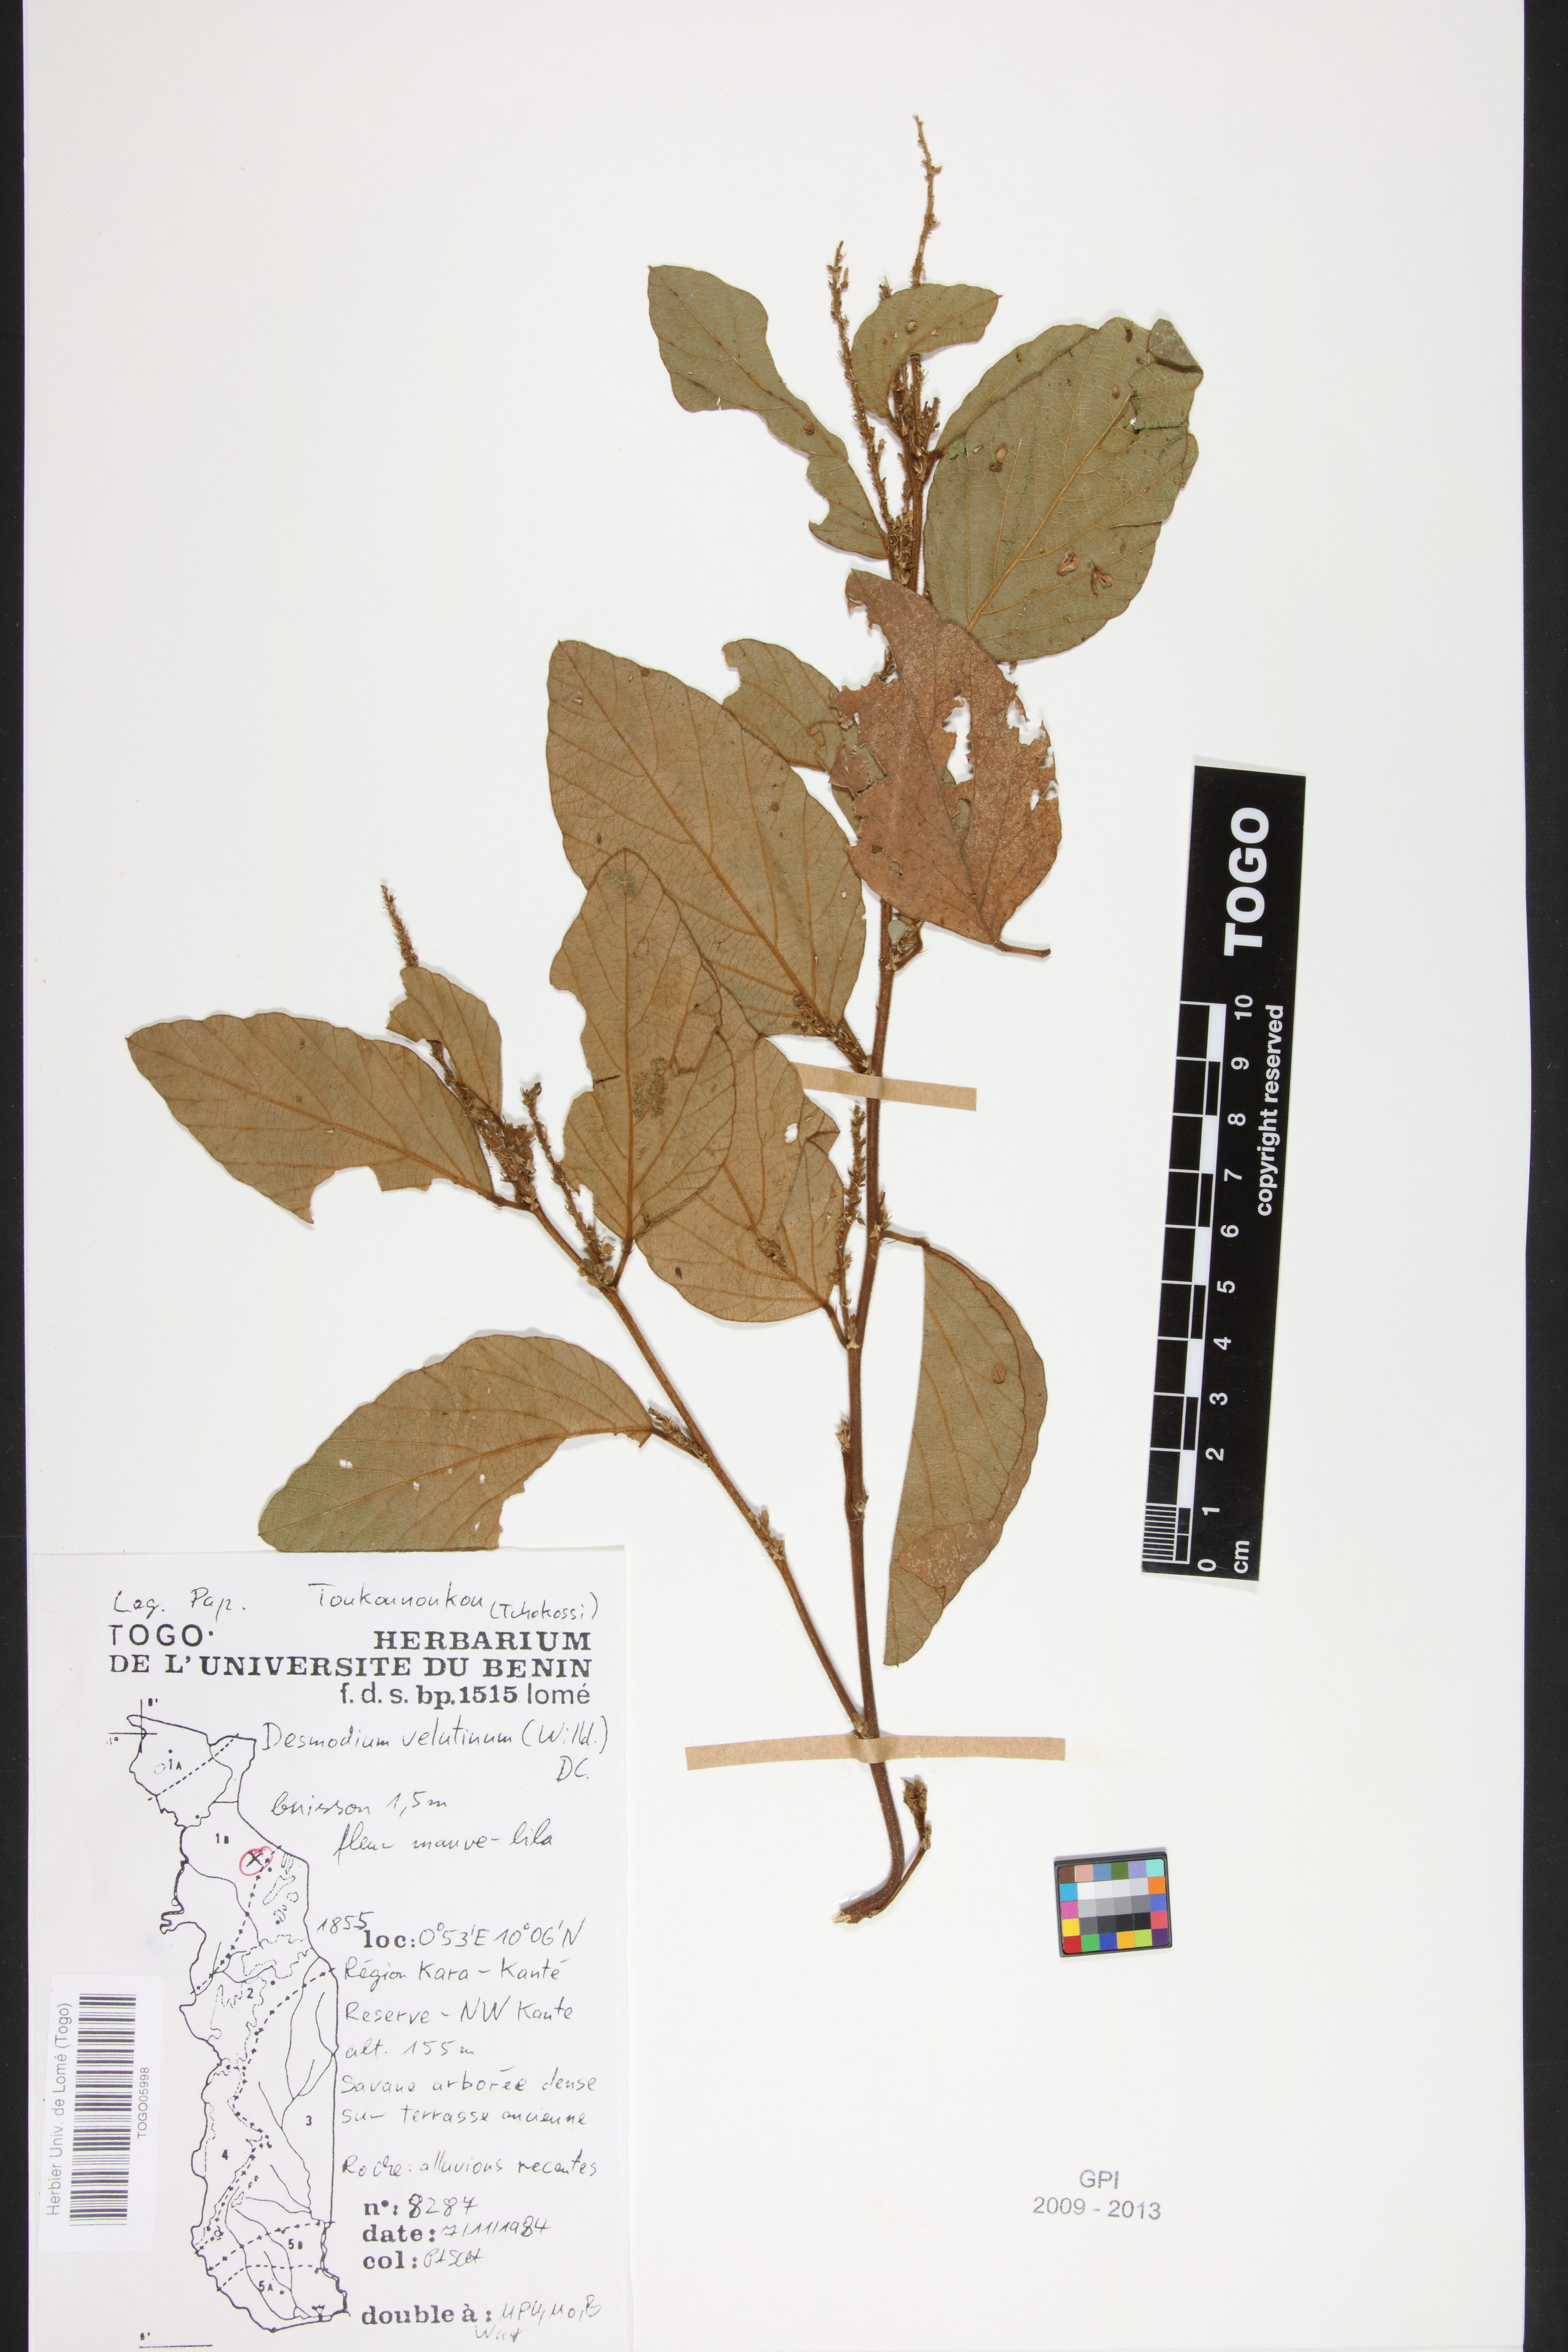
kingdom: Plantae
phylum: Tracheophyta
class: Magnoliopsida
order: Fabales
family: Fabaceae
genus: Polhillides
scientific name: Polhillides velutina
